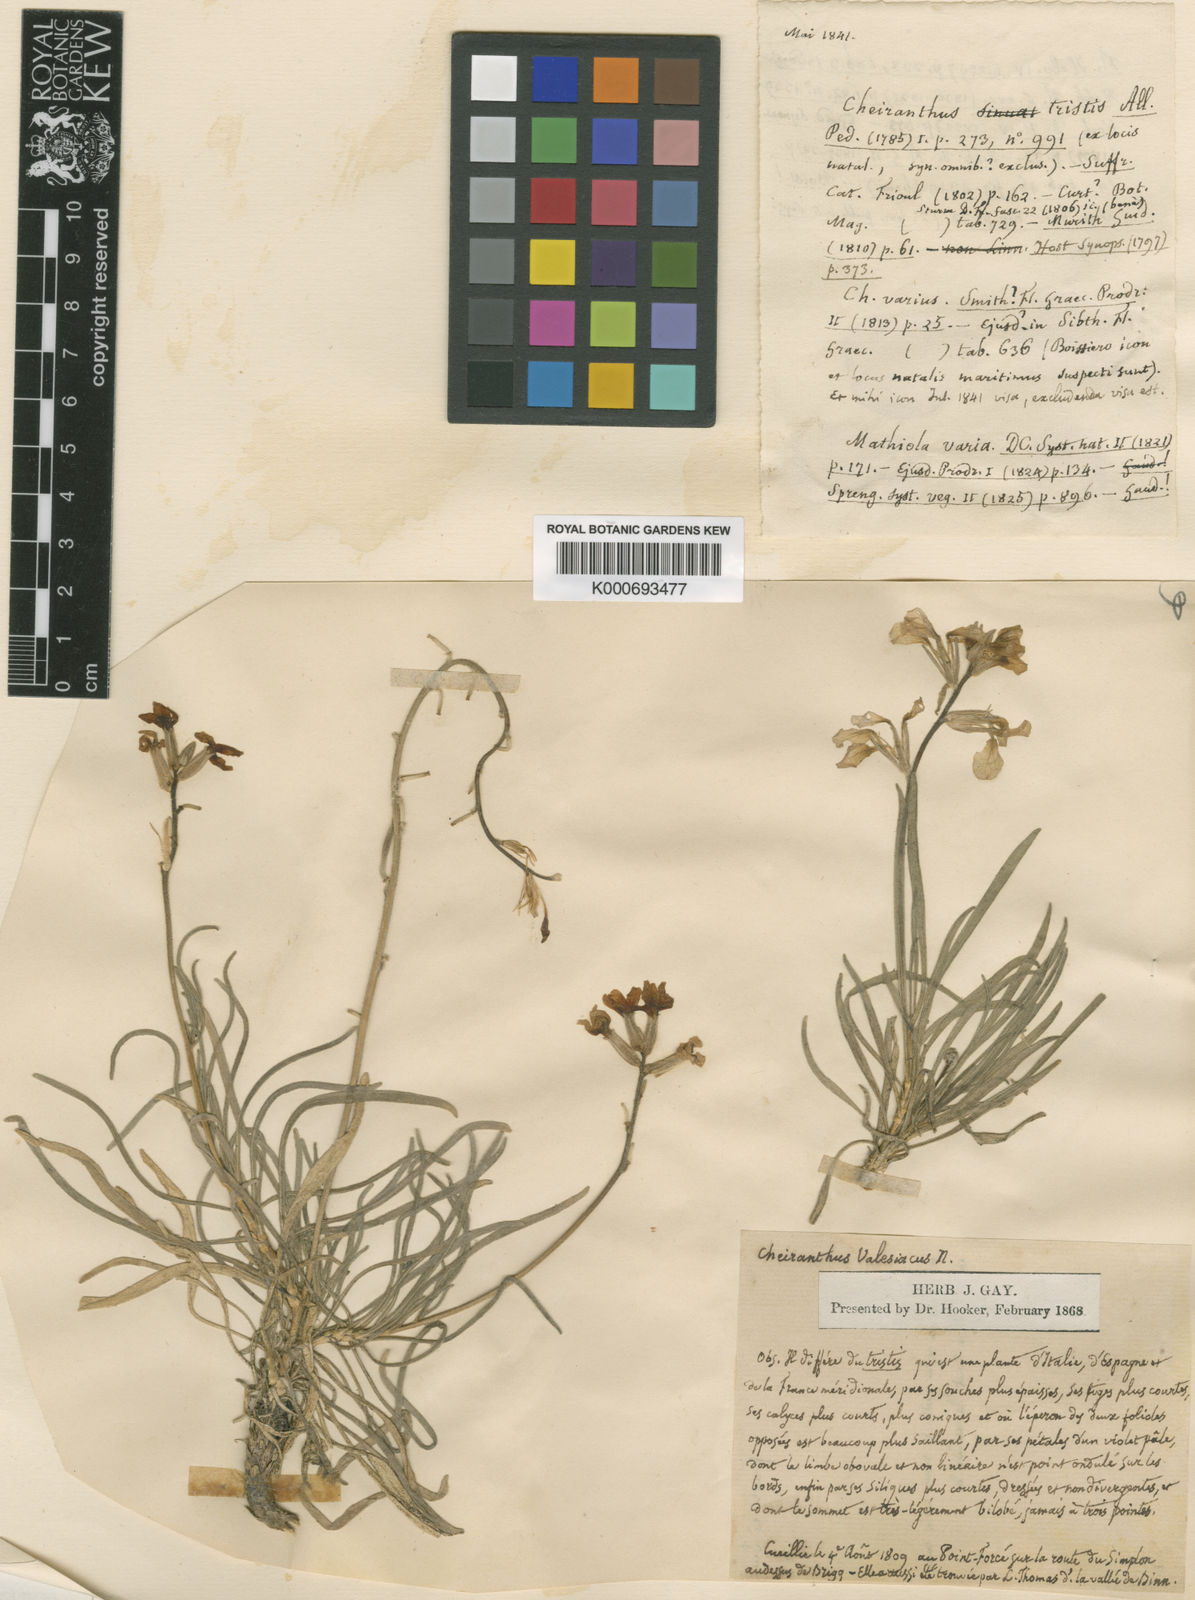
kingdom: Plantae
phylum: Tracheophyta
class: Magnoliopsida
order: Brassicales
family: Brassicaceae
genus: Matthiola
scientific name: Matthiola fruticulosa
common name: Sad stock
